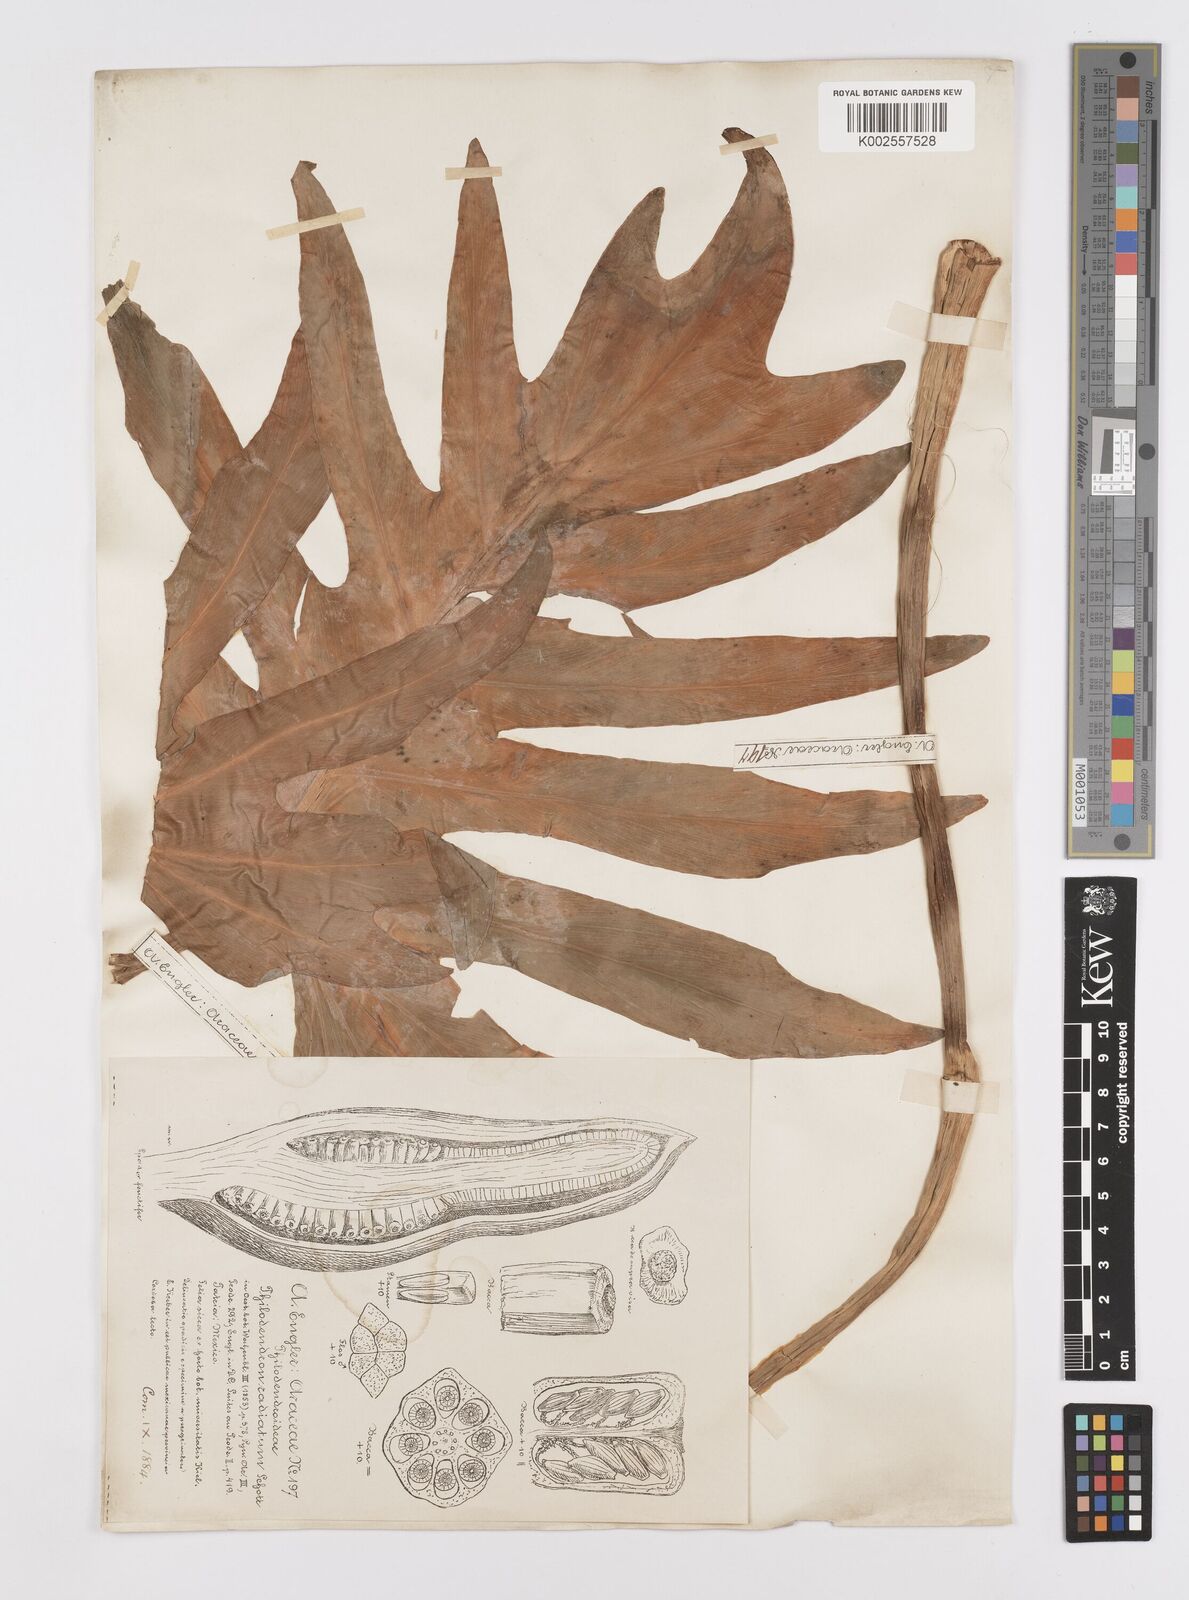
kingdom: Plantae
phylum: Tracheophyta
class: Liliopsida
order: Alismatales
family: Araceae
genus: Philodendron
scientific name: Philodendron radiatum
